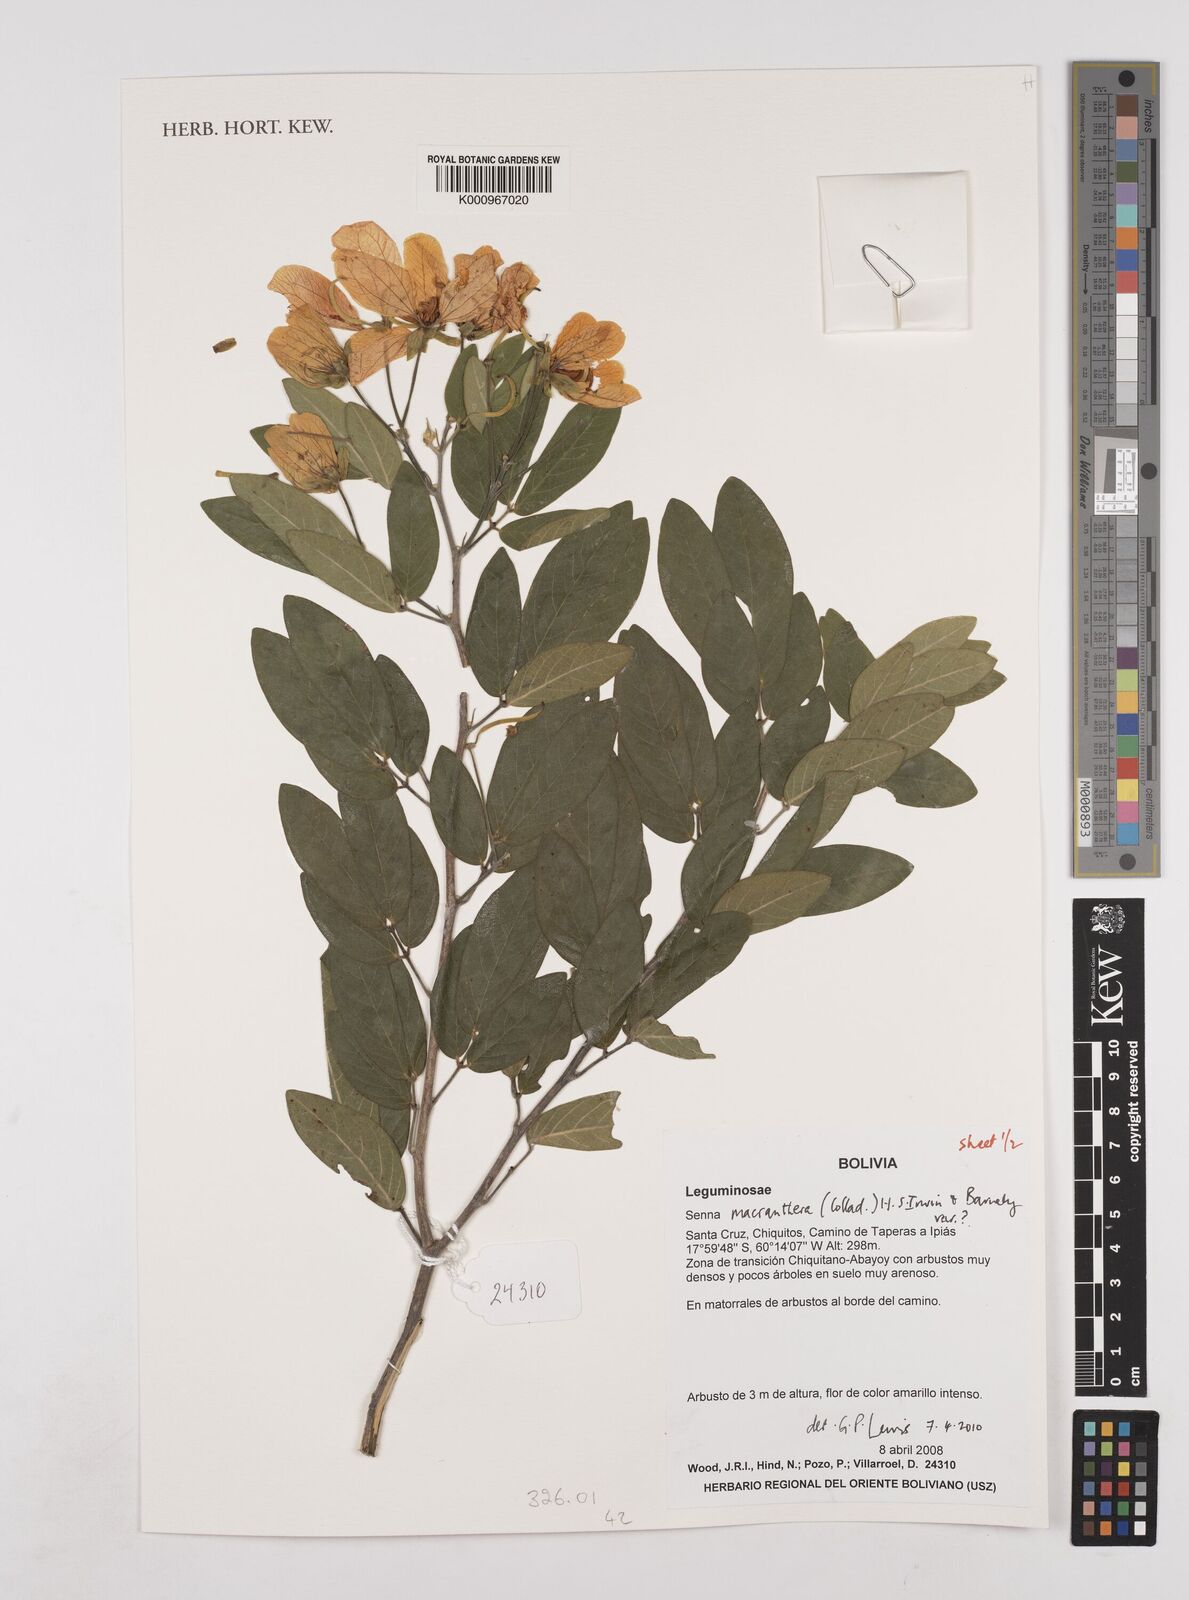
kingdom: Plantae
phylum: Tracheophyta
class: Magnoliopsida
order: Fabales
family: Fabaceae
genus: Senna
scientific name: Senna macranthera
